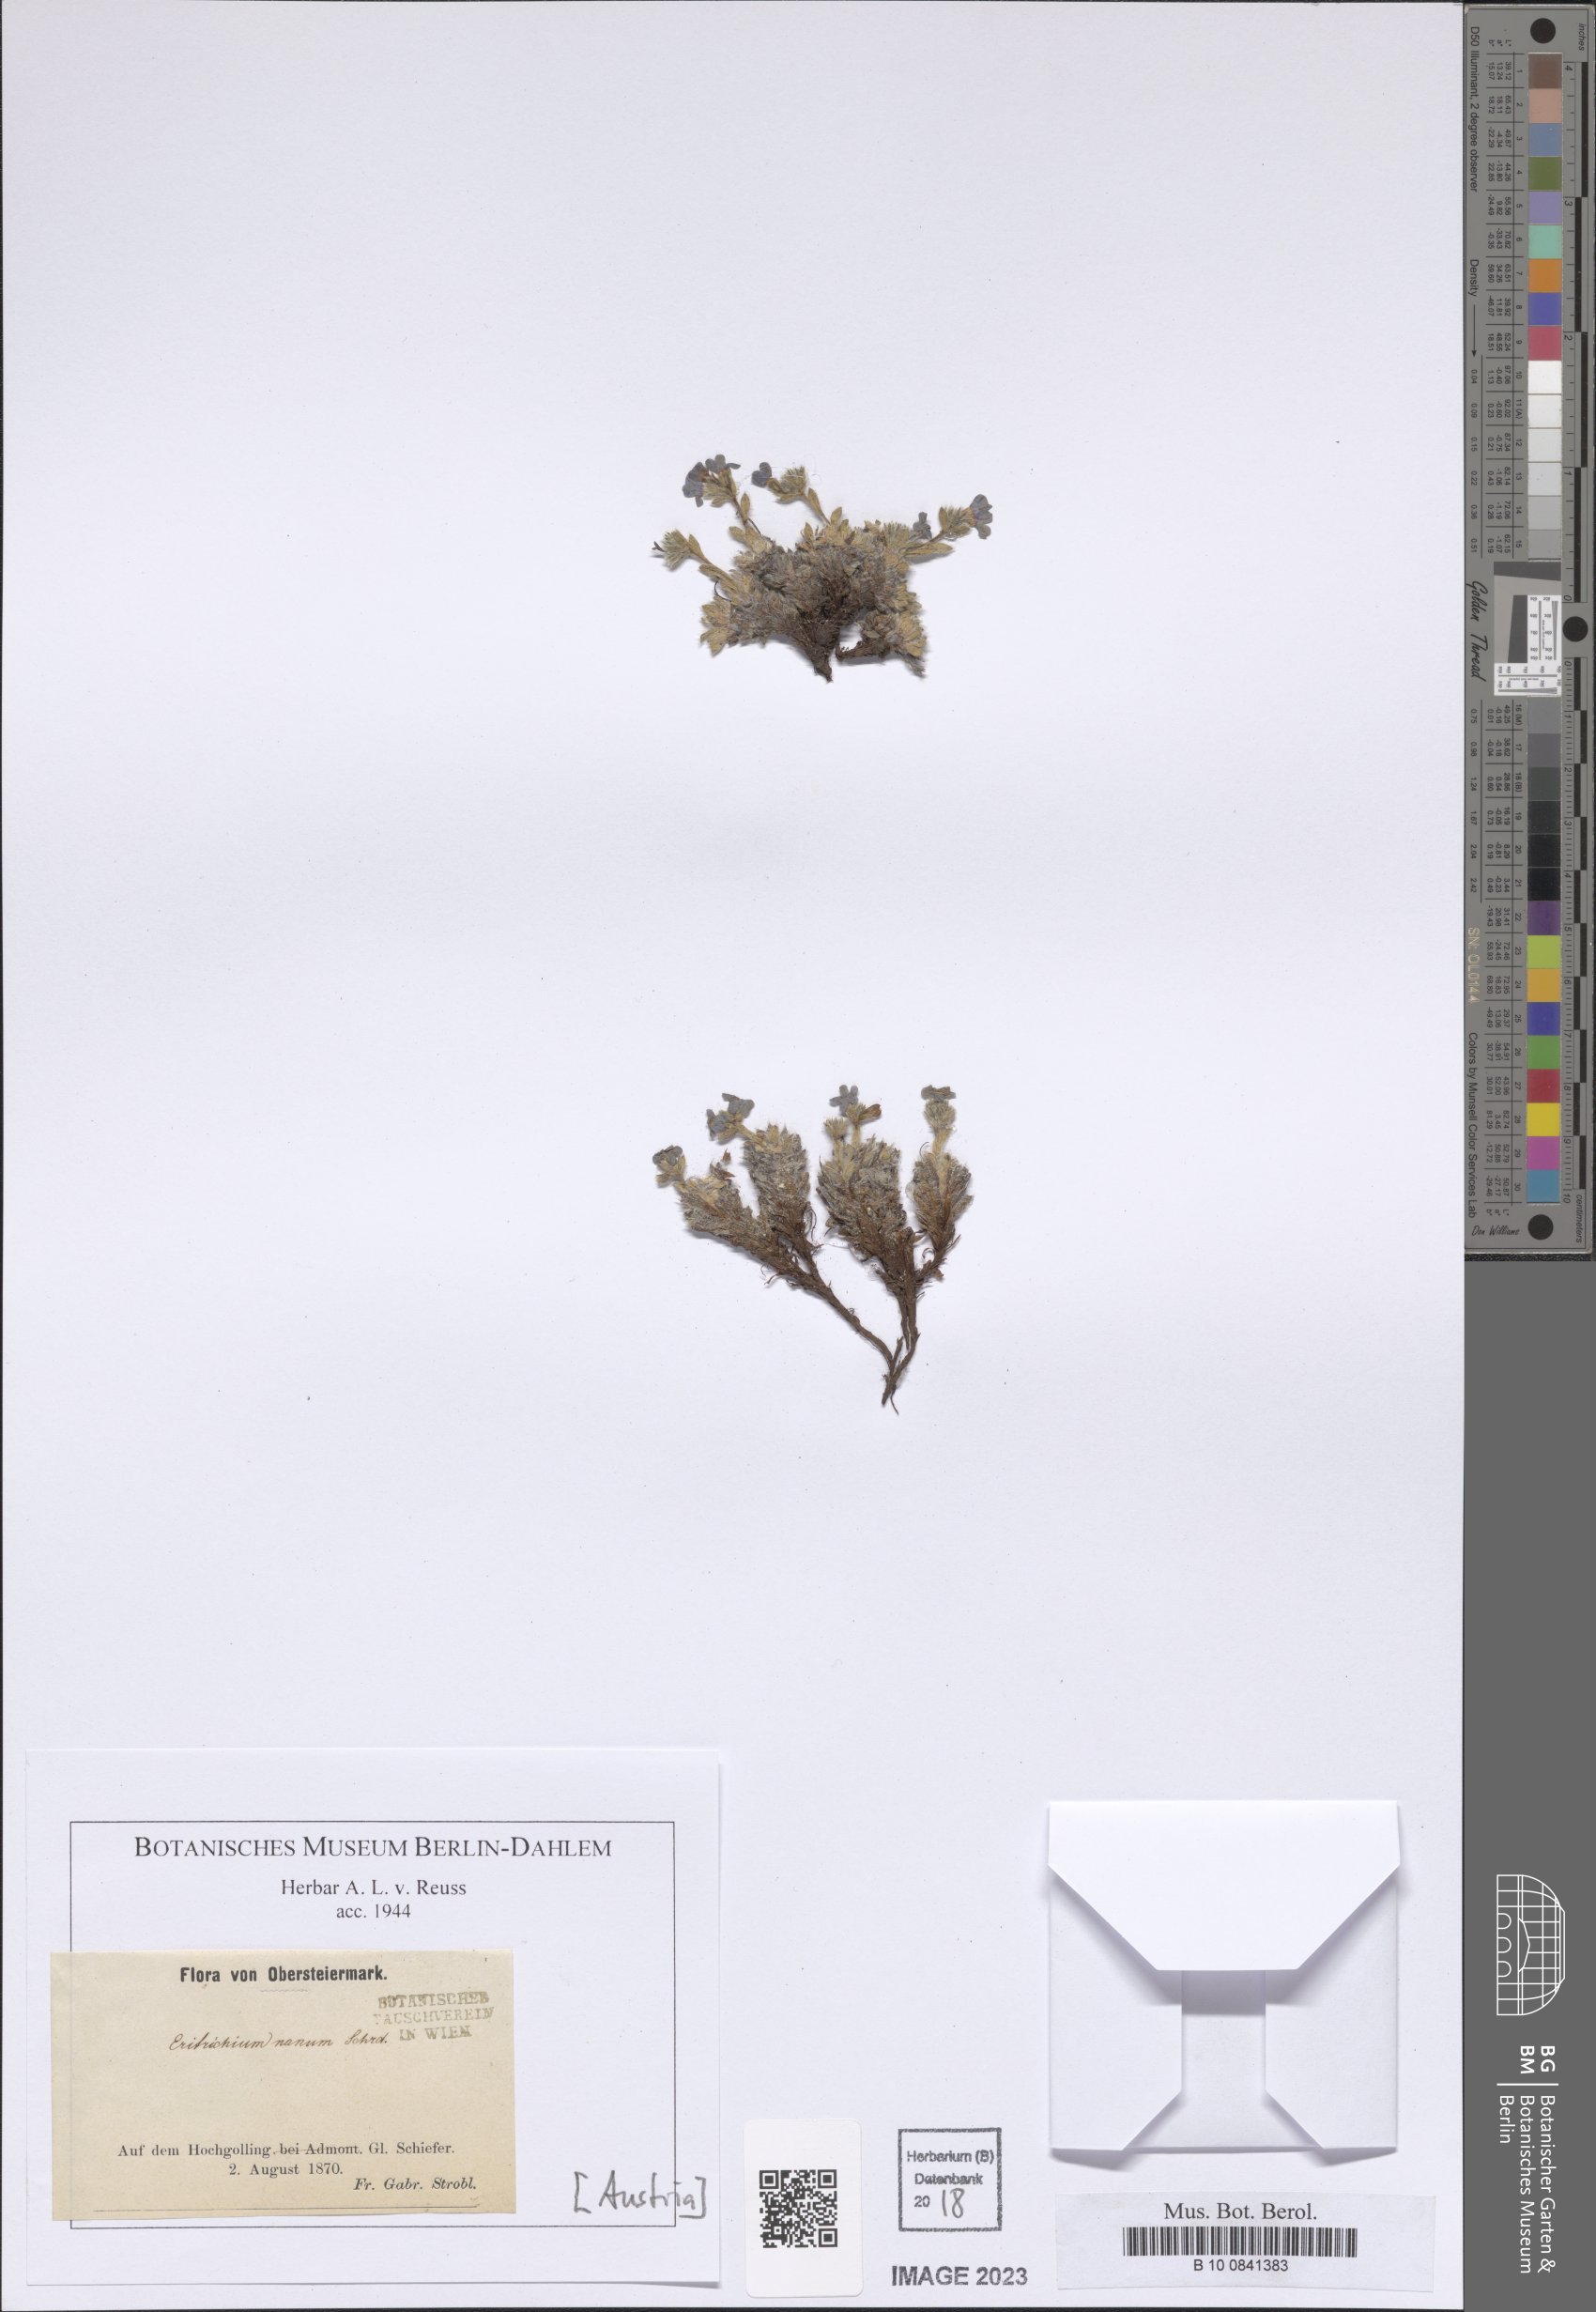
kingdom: Plantae
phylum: Tracheophyta
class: Magnoliopsida
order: Boraginales
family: Boraginaceae
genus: Eritrichium
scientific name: Eritrichium nanum
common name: King-of-the-alps
